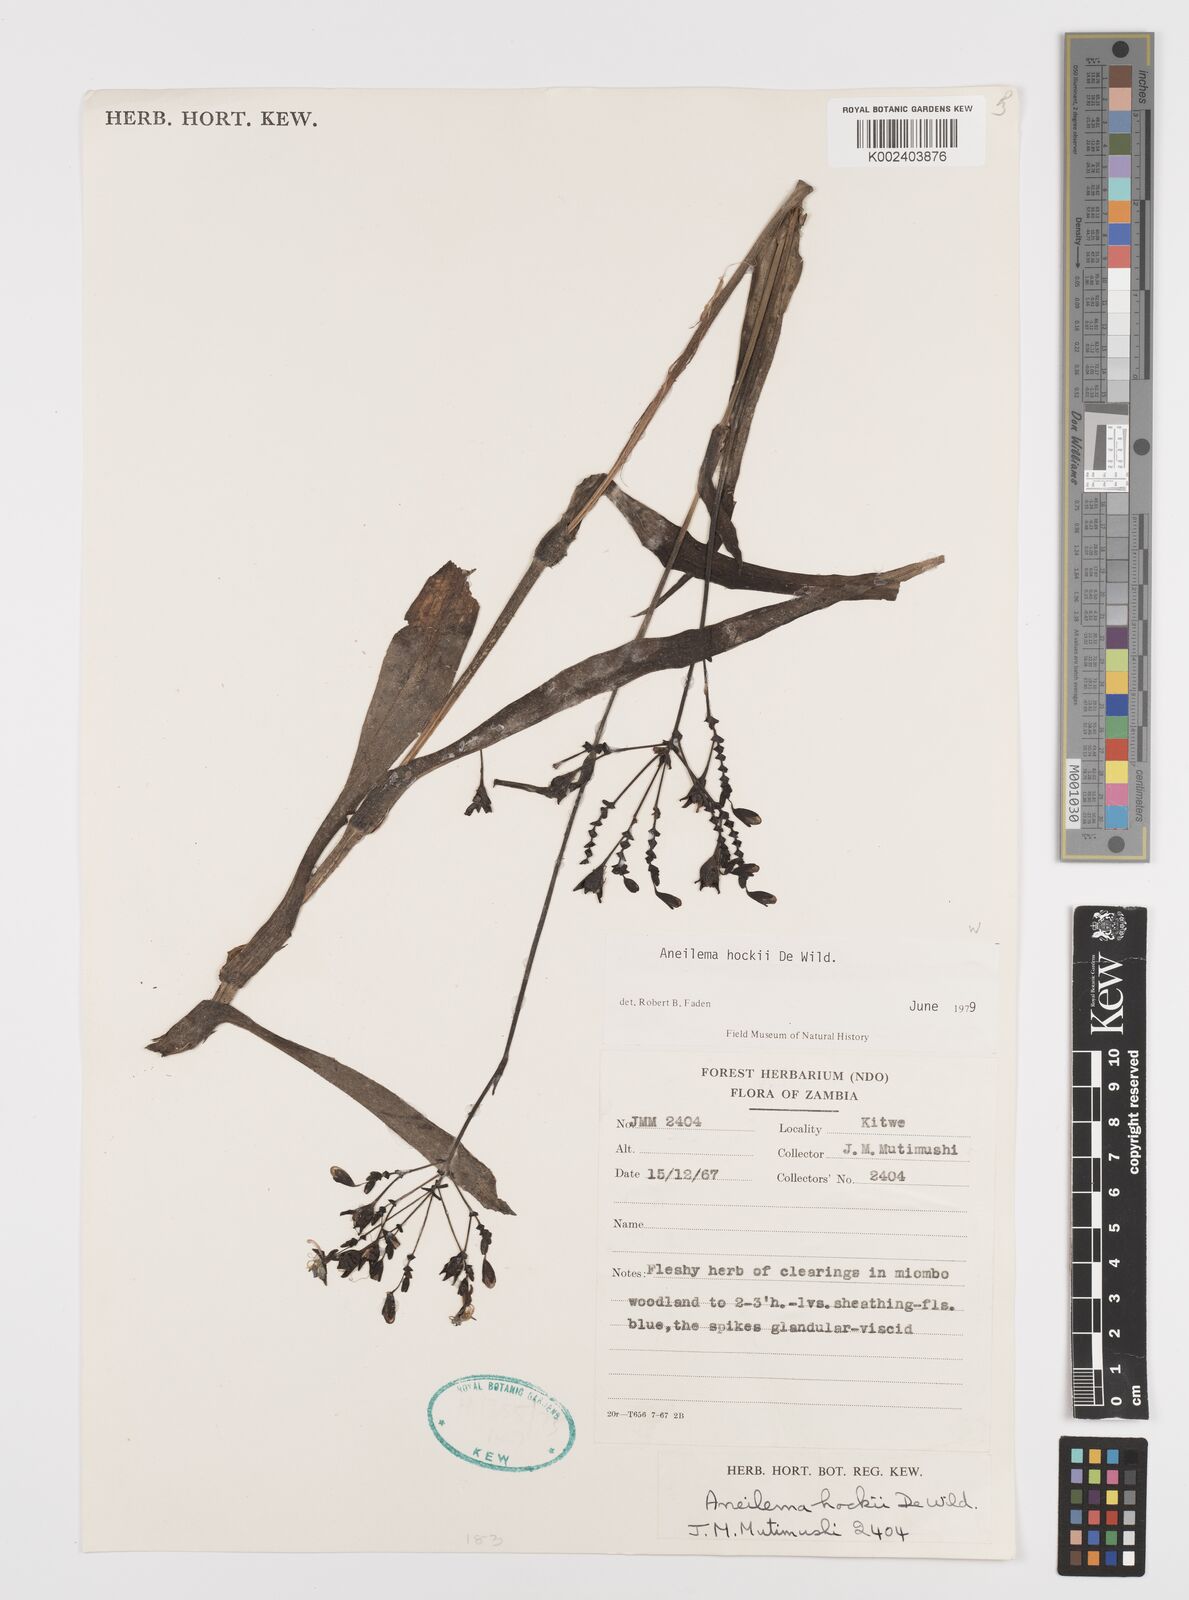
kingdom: Plantae
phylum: Tracheophyta
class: Liliopsida
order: Commelinales
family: Commelinaceae
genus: Aneilema
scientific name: Aneilema hockii
